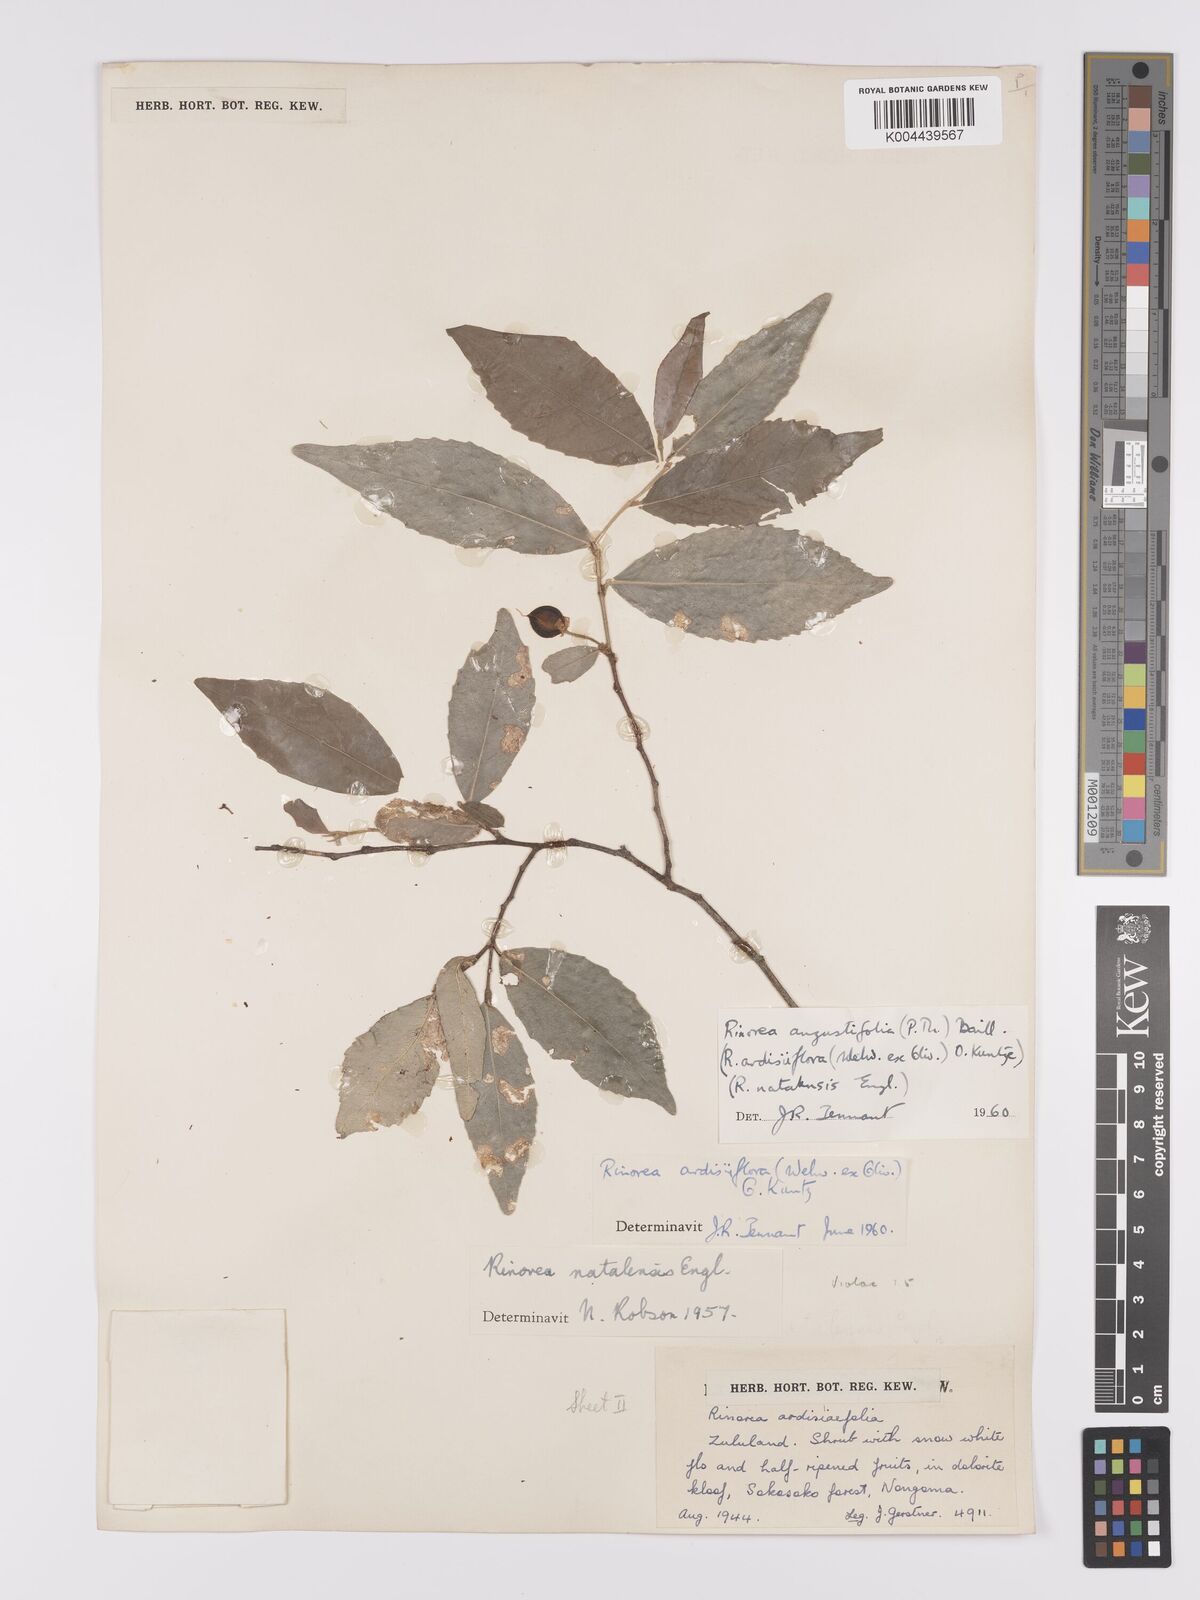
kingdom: Plantae
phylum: Tracheophyta
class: Magnoliopsida
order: Malpighiales
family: Violaceae
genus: Rinorea
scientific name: Rinorea angustifolia
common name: White violet-bush
